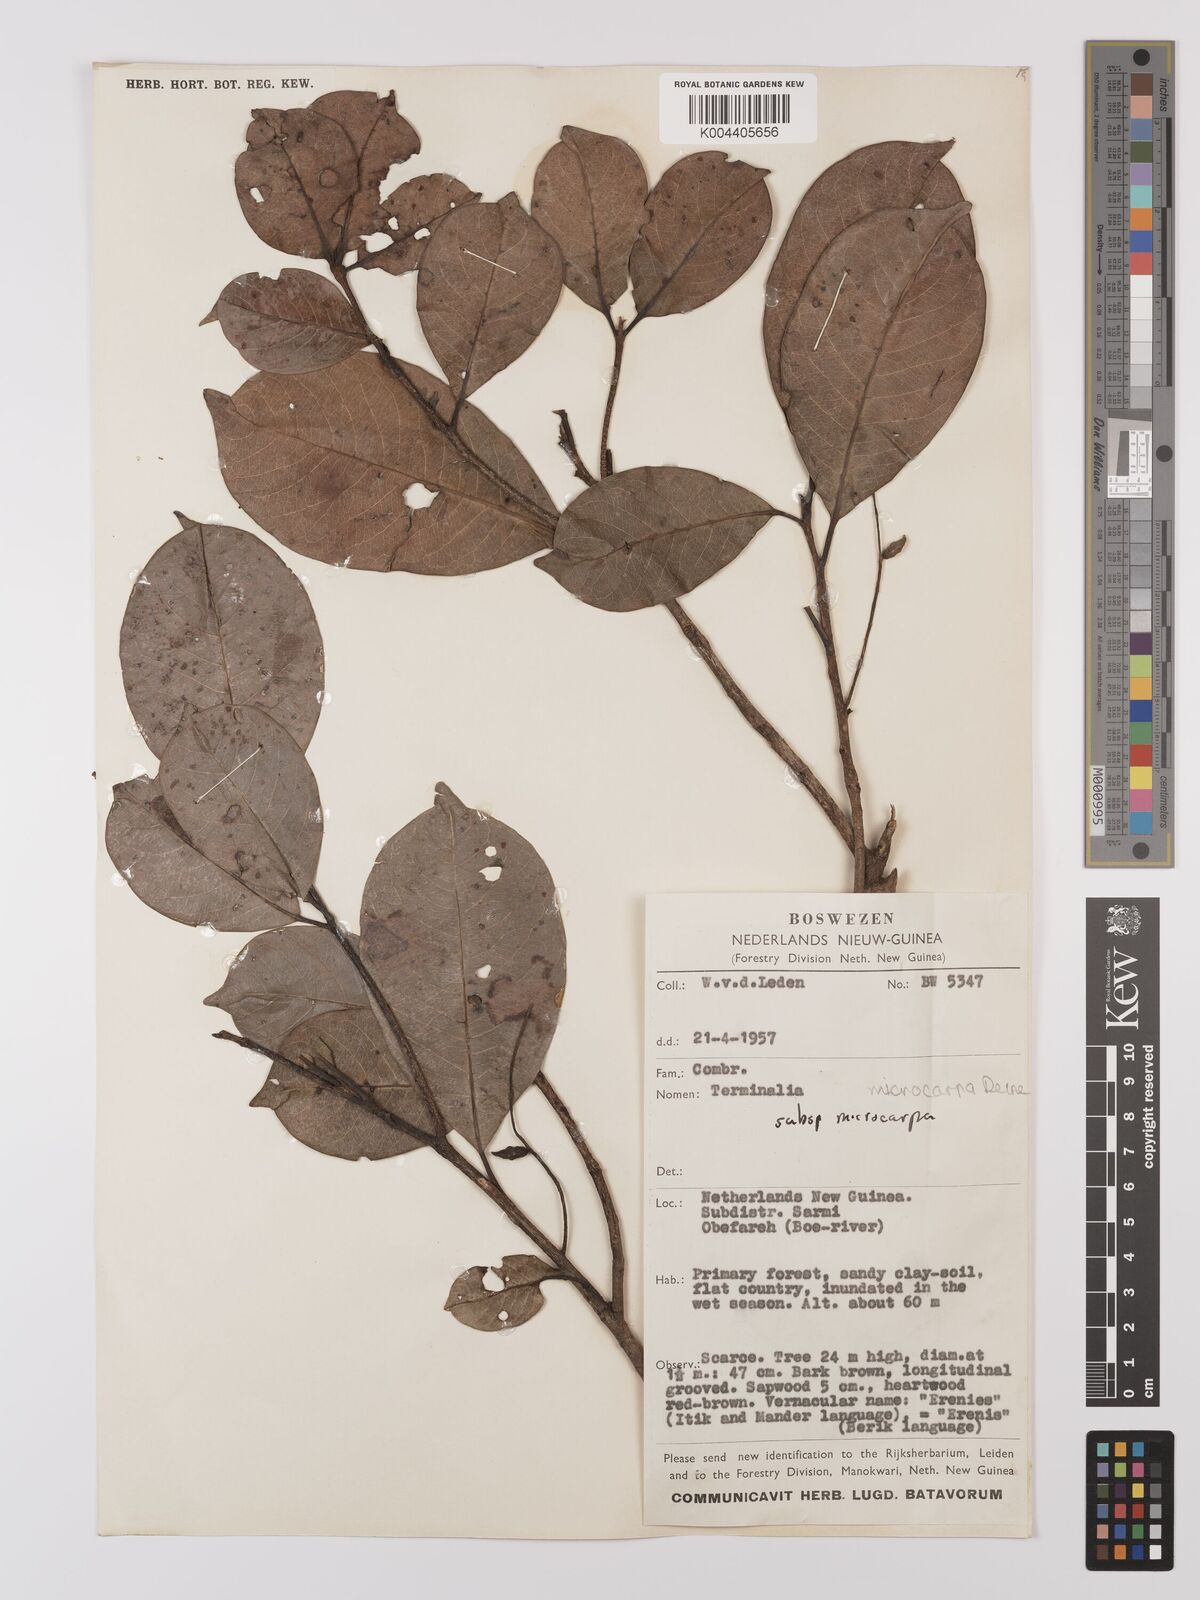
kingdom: Plantae
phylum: Tracheophyta
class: Magnoliopsida
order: Myrtales
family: Combretaceae
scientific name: Combretaceae
